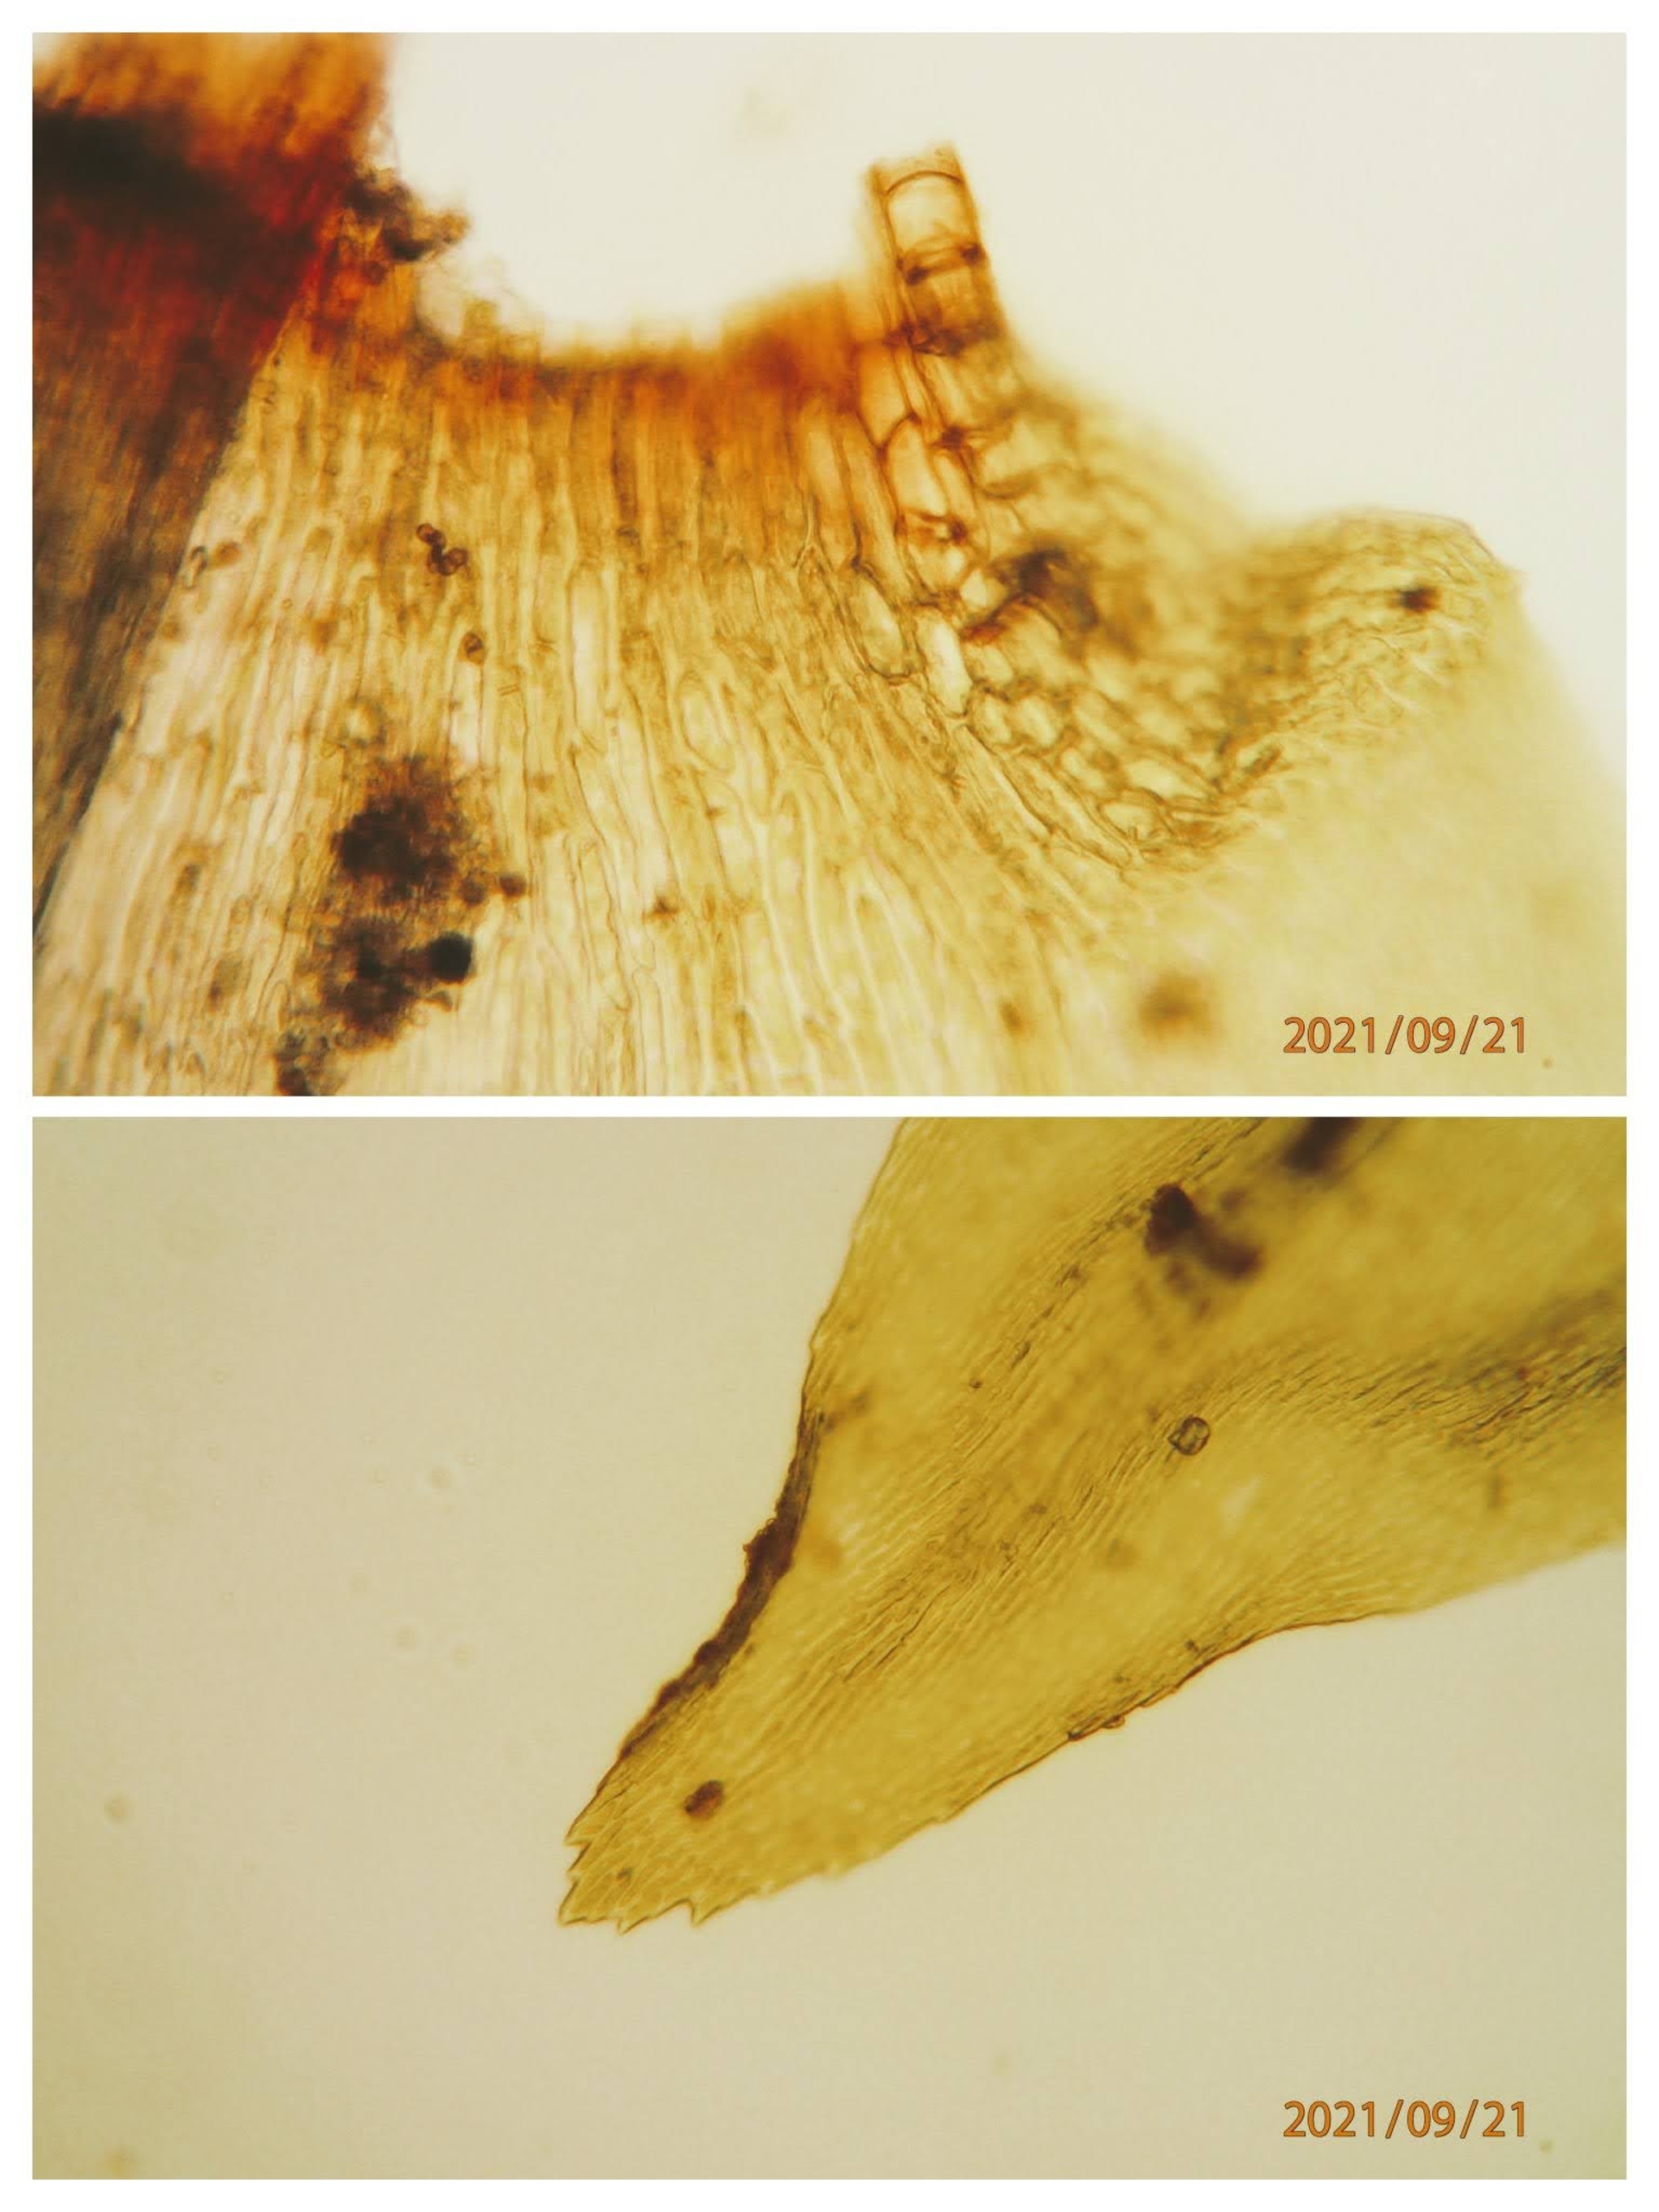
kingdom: Plantae
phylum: Bryophyta
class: Bryopsida
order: Hypnales
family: Climaciaceae
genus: Climacium
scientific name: Climacium dendroides
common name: Stor engkost
